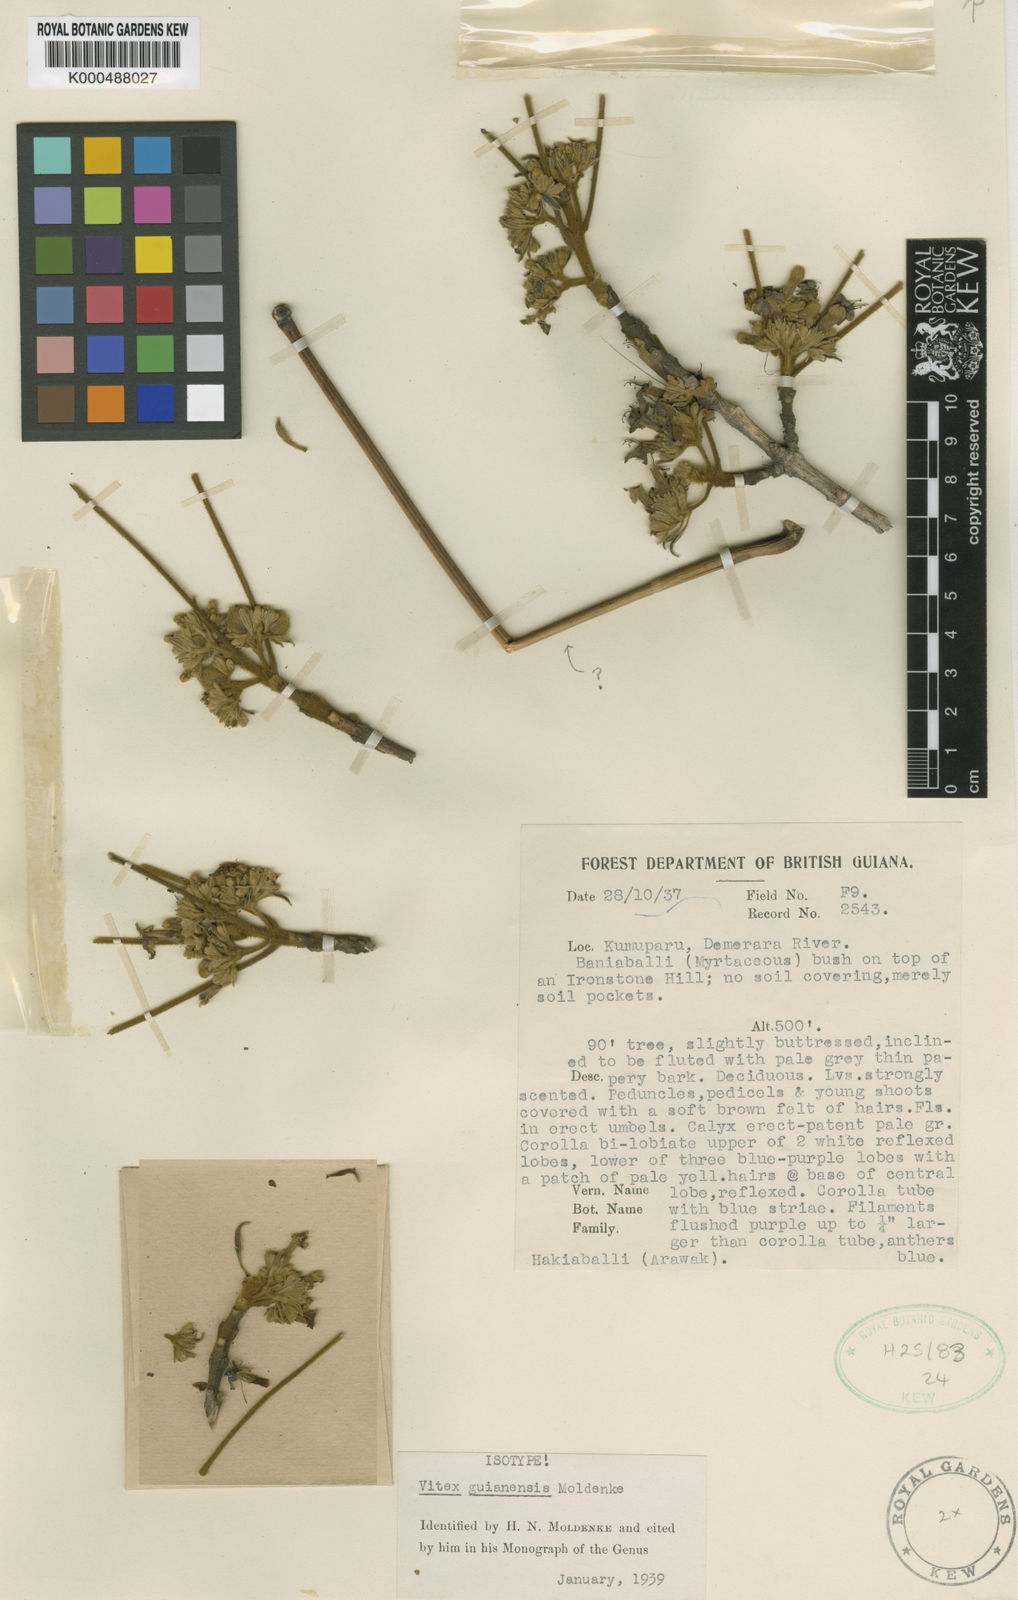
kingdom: Plantae
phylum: Tracheophyta
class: Magnoliopsida
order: Lamiales
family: Lamiaceae
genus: Vitex
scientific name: Vitex guianensis
